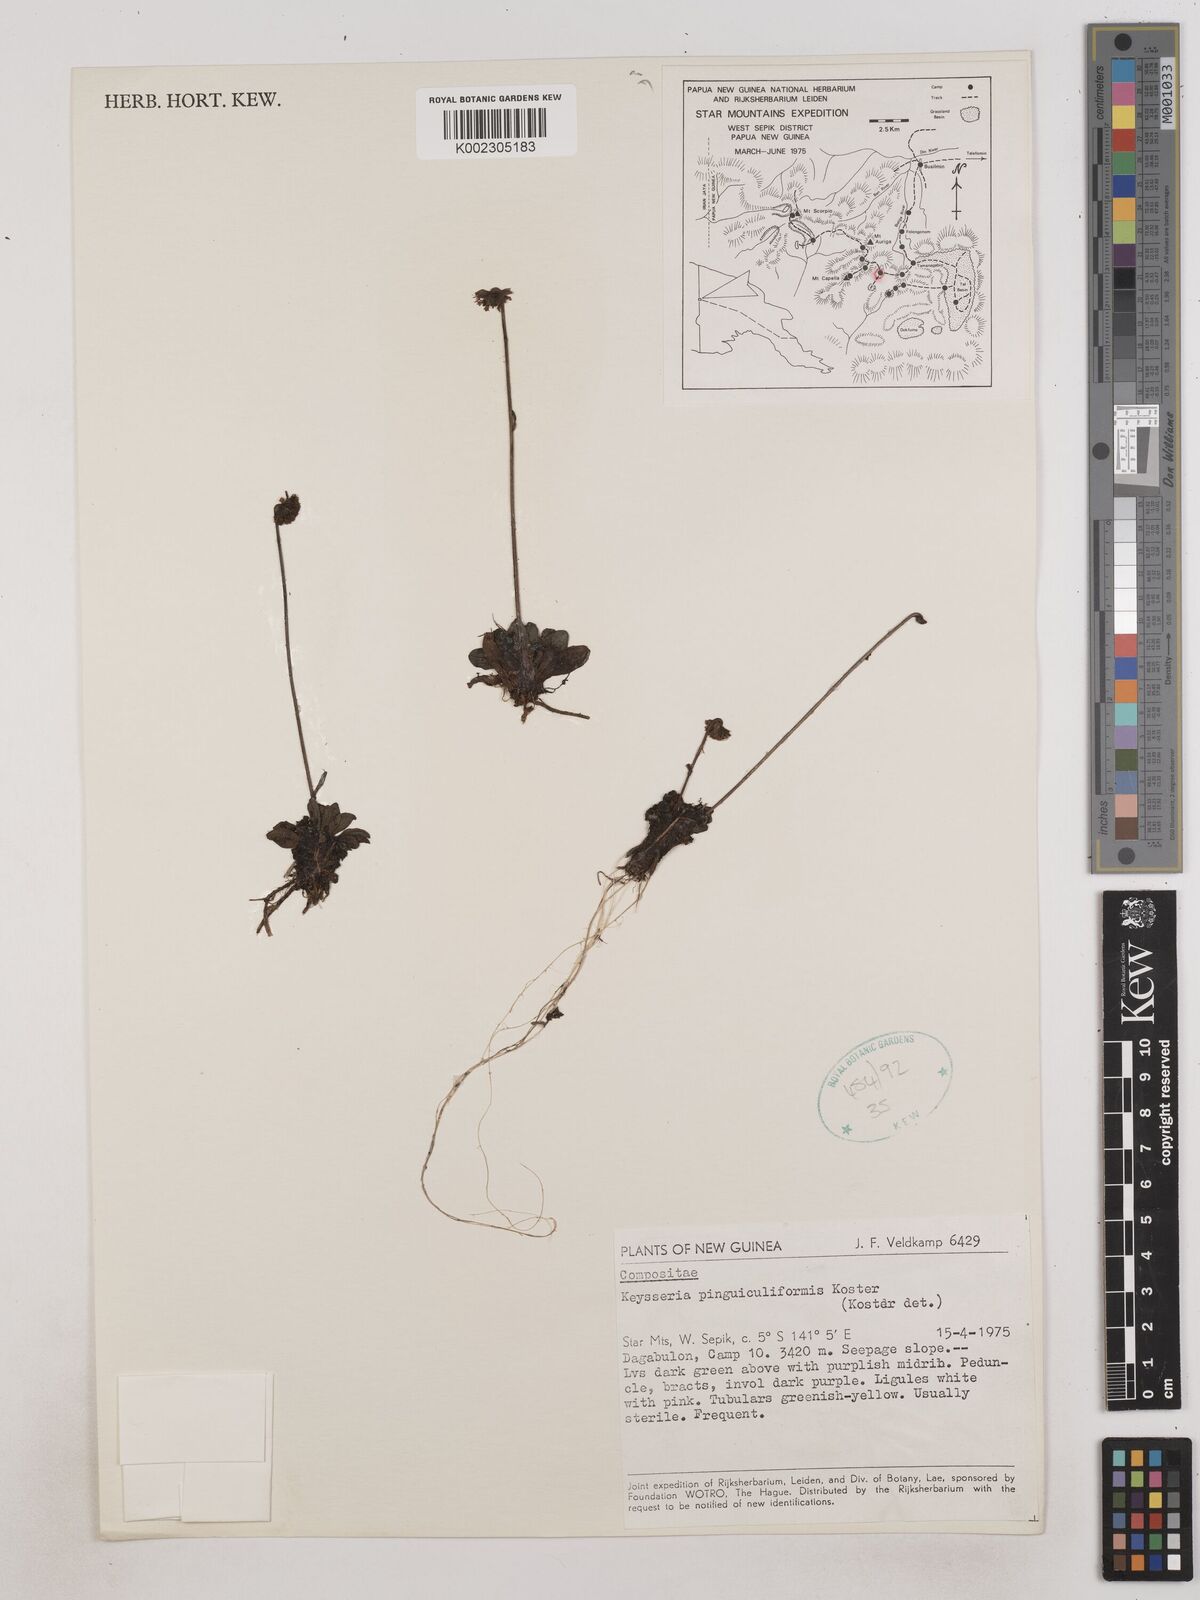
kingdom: Plantae
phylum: Tracheophyta
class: Magnoliopsida
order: Asterales
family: Asteraceae
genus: Keysseria
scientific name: Keysseria pinguiculiformis
